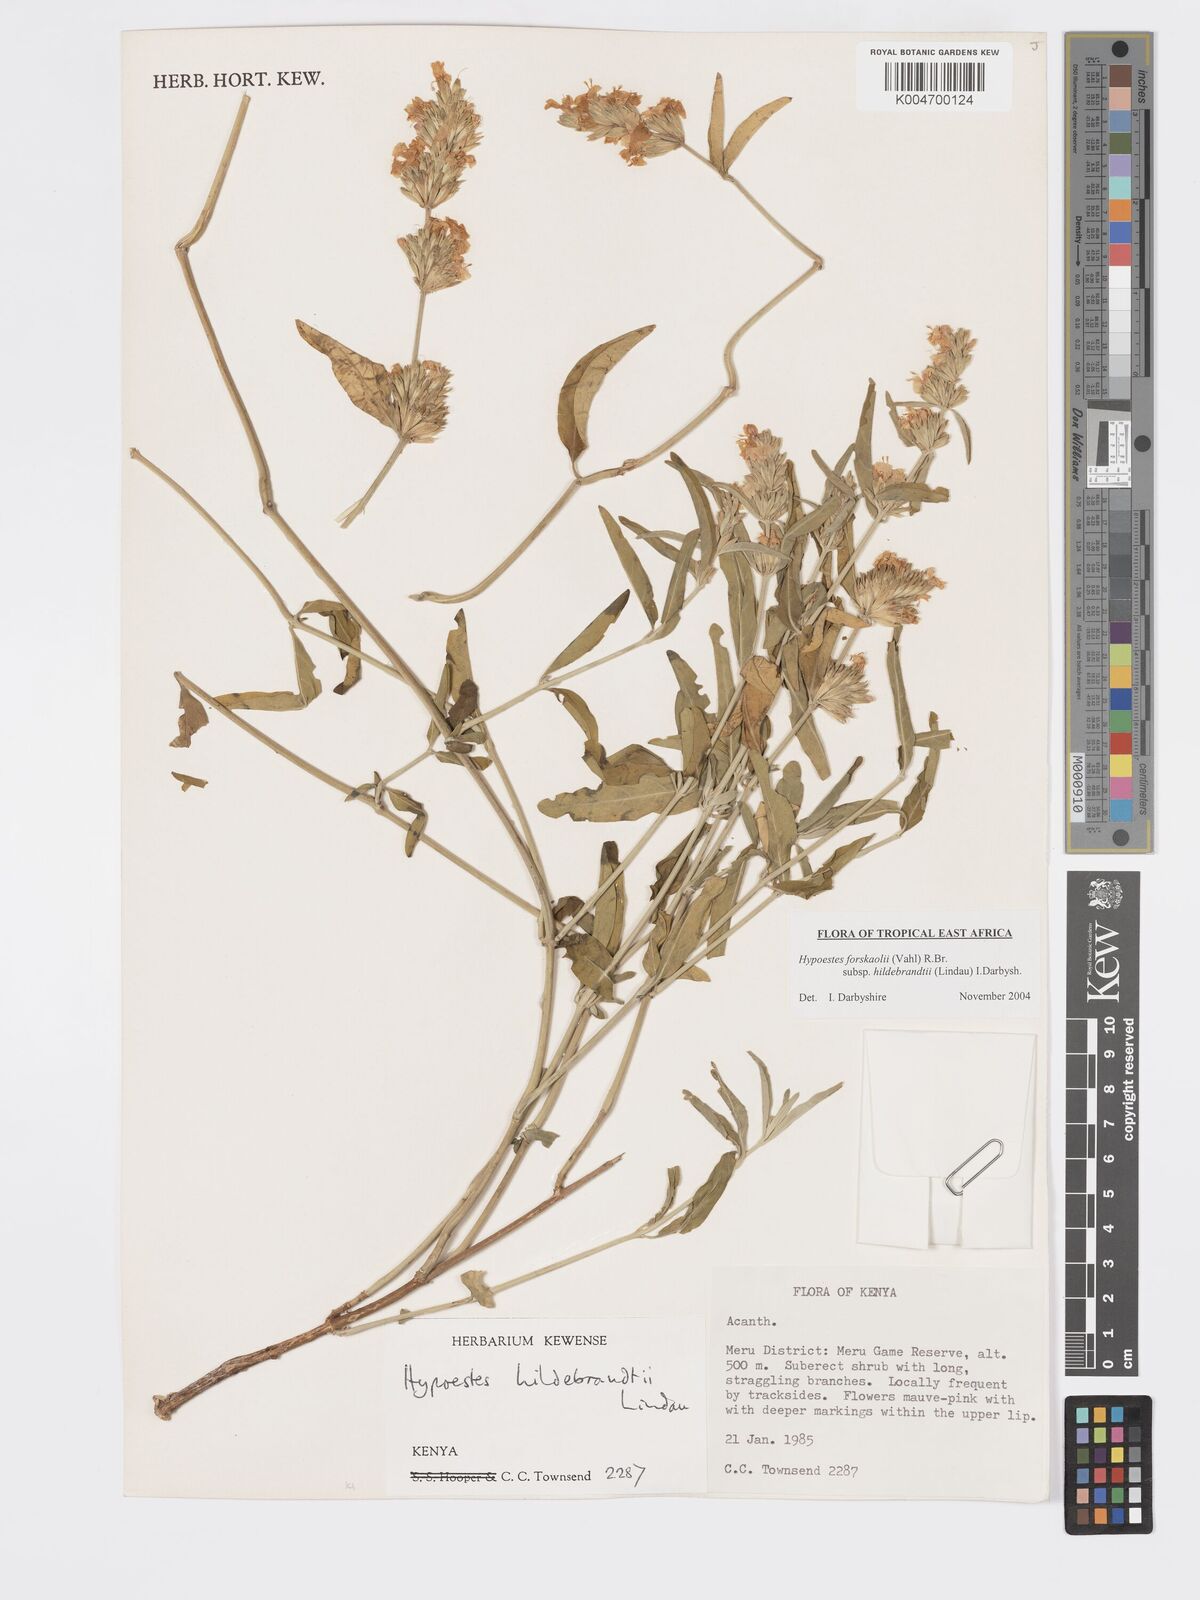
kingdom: Plantae
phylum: Tracheophyta
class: Magnoliopsida
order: Lamiales
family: Acanthaceae
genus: Hypoestes
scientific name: Hypoestes forskaolii
